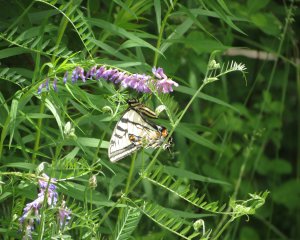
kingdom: Animalia
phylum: Arthropoda
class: Insecta
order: Lepidoptera
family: Papilionidae
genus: Pterourus
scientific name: Pterourus canadensis
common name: Canadian Tiger Swallowtail
